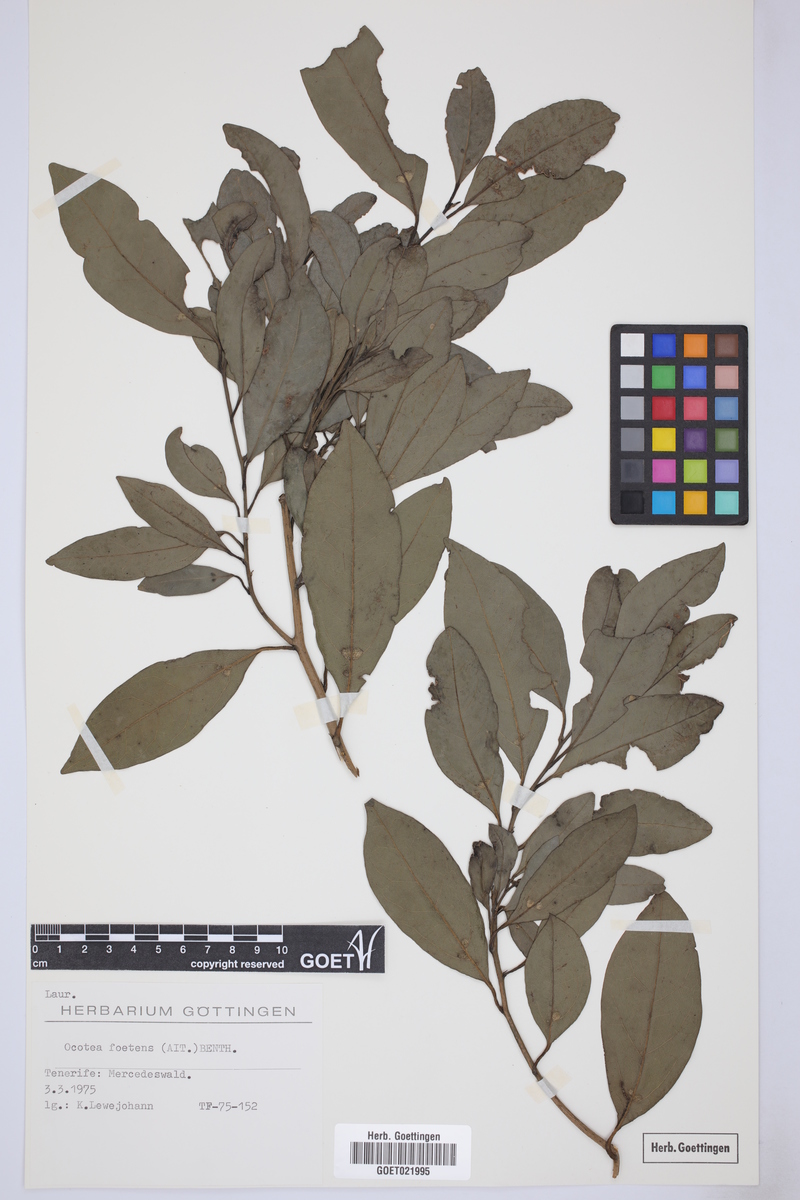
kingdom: Plantae
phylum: Tracheophyta
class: Magnoliopsida
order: Laurales
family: Lauraceae
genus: Mespilodaphne
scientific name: Mespilodaphne foetens
